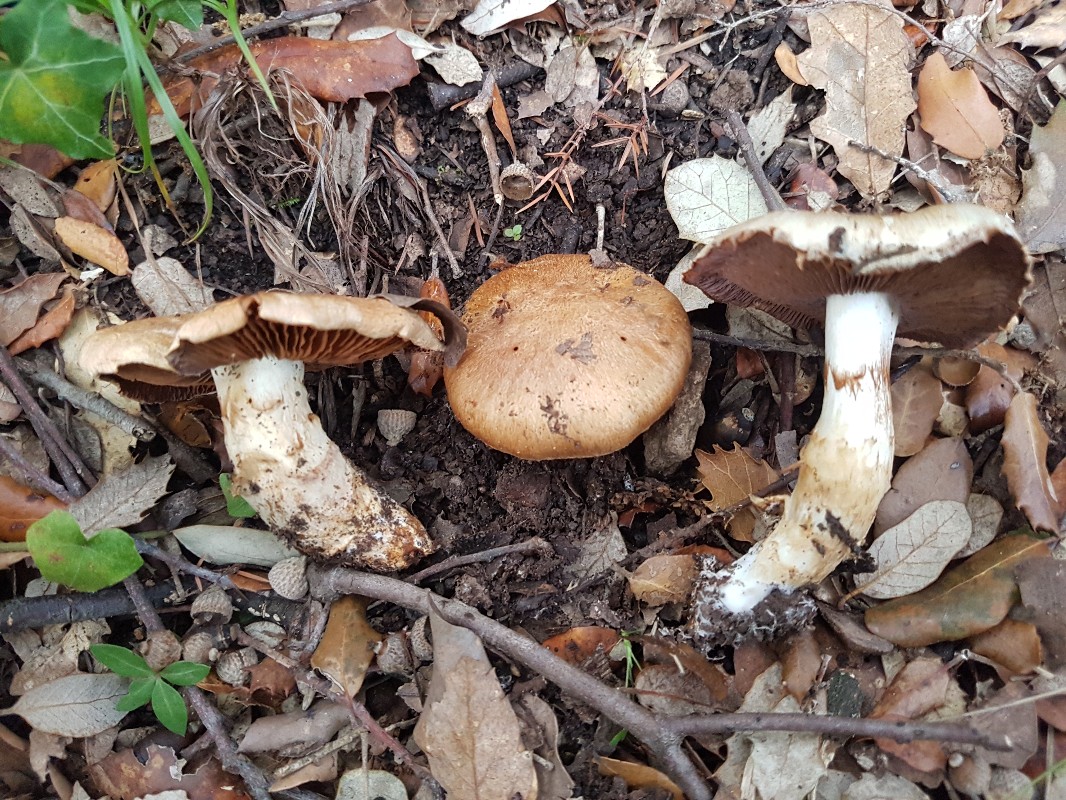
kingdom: Fungi
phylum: Basidiomycota
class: Agaricomycetes
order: Agaricales
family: Cortinariaceae
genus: Phlegmacium
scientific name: Phlegmacium caligatum
